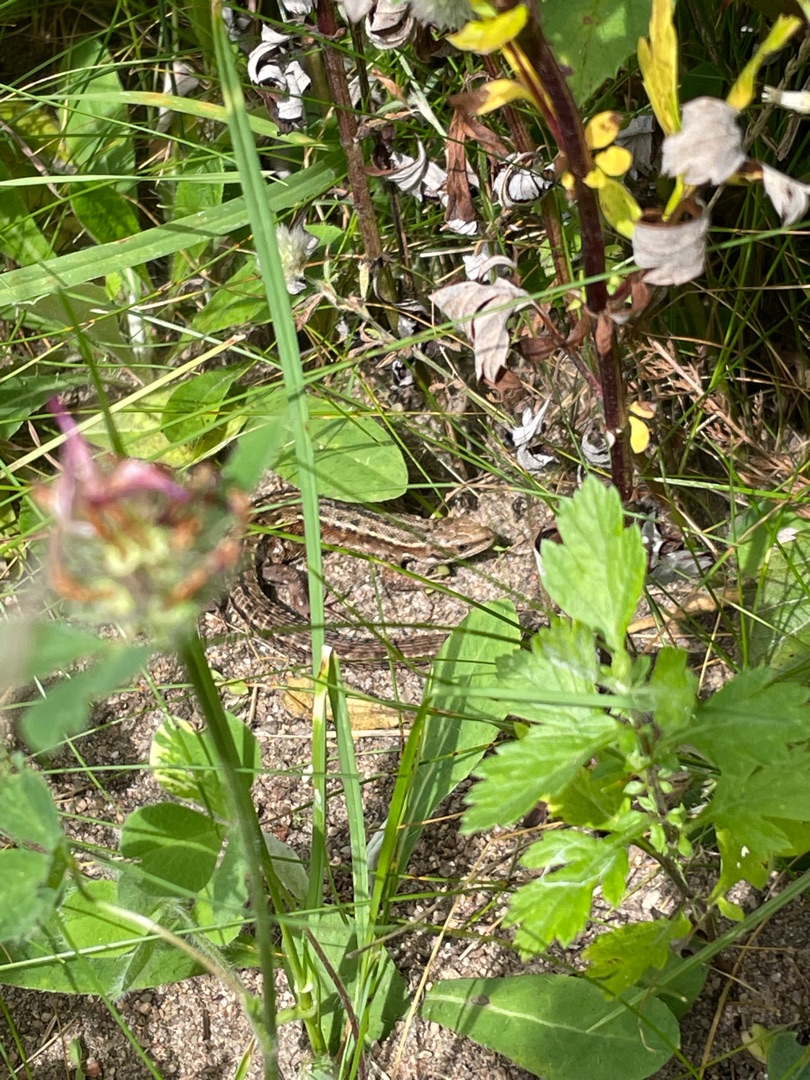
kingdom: Animalia
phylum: Chordata
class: Squamata
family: Lacertidae
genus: Zootoca
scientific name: Zootoca vivipara
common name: Skovfirben
